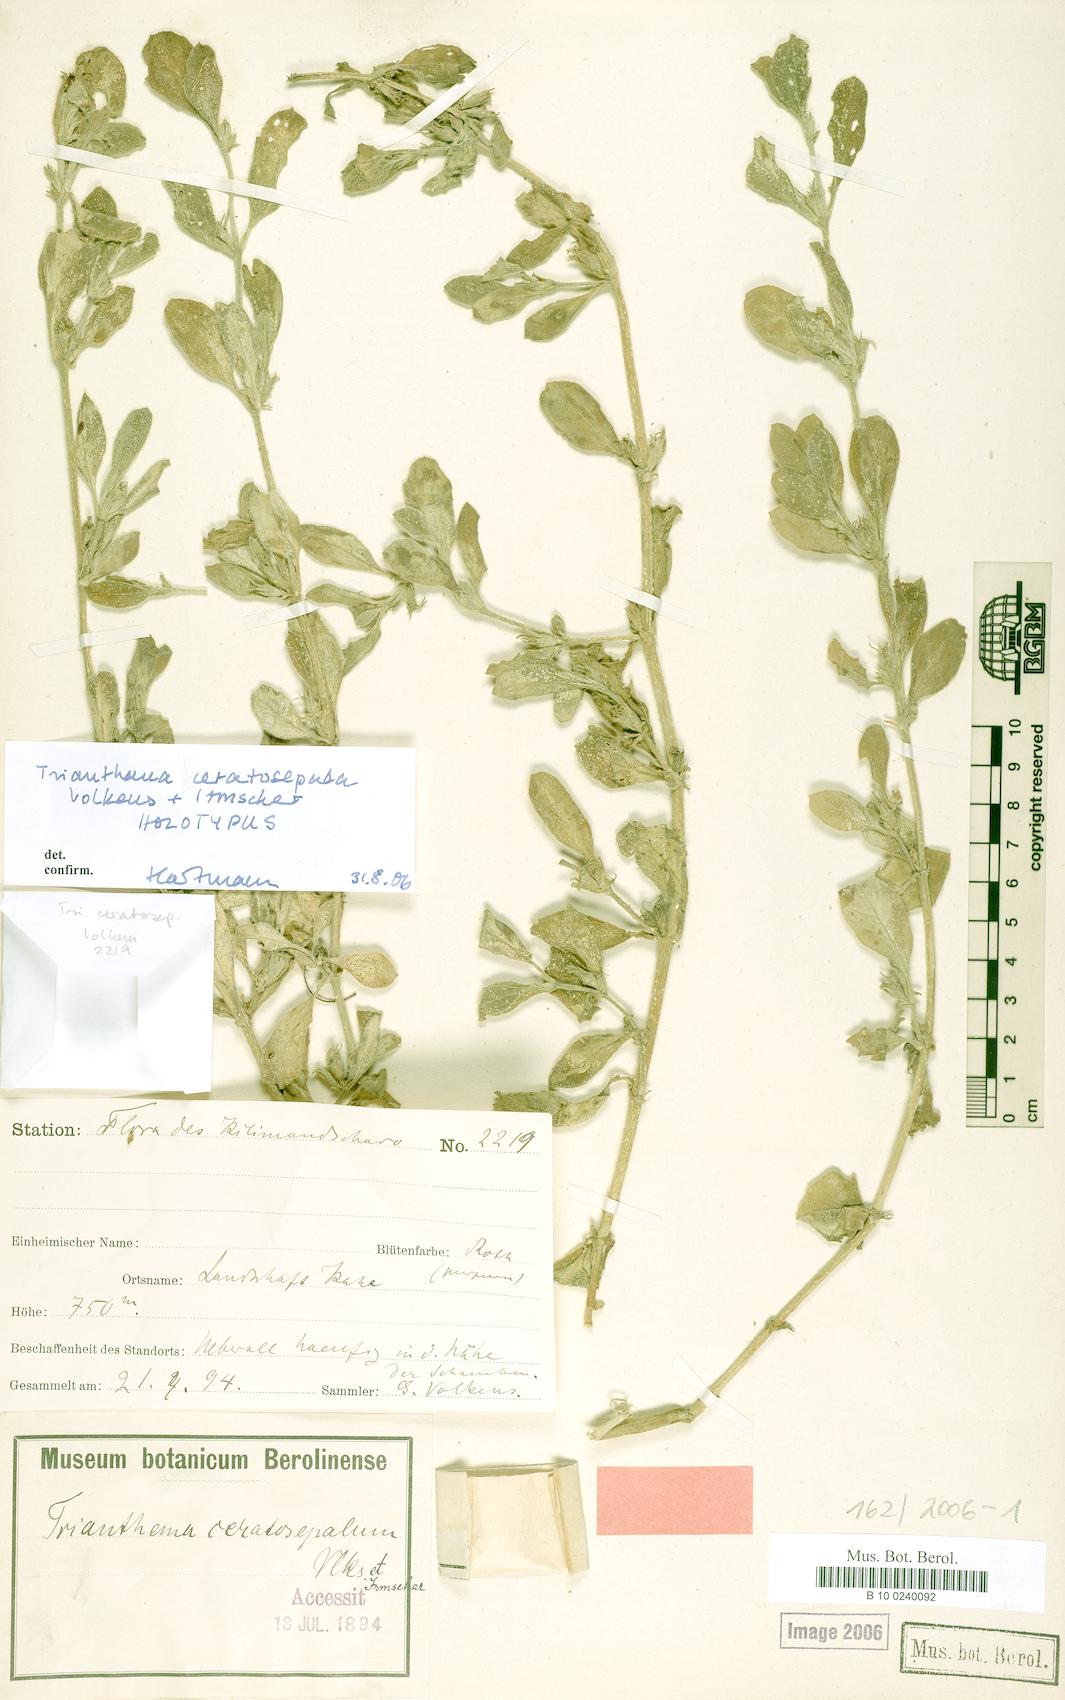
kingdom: Plantae
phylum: Tracheophyta
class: Magnoliopsida
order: Caryophyllales
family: Aizoaceae
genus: Trianthema
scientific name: Trianthema ceratosepalum
